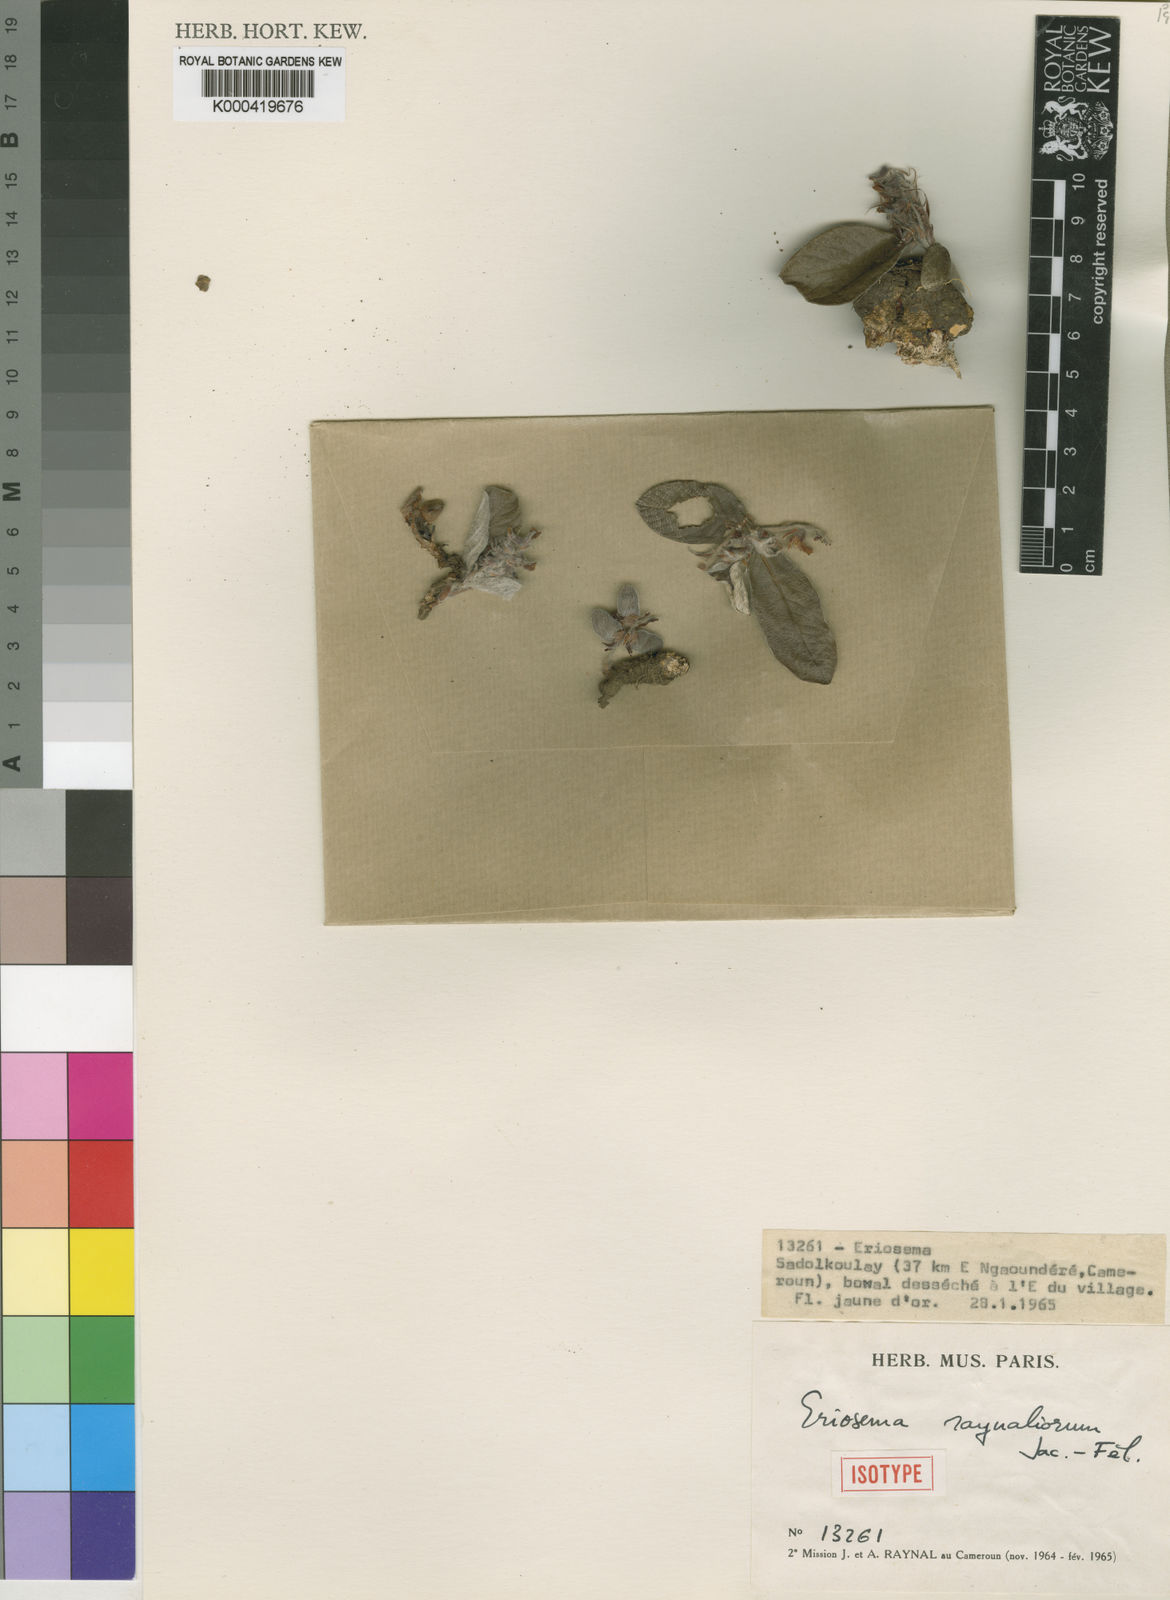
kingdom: Plantae
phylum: Tracheophyta
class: Magnoliopsida
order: Fabales
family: Fabaceae
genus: Eriosema
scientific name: Eriosema
